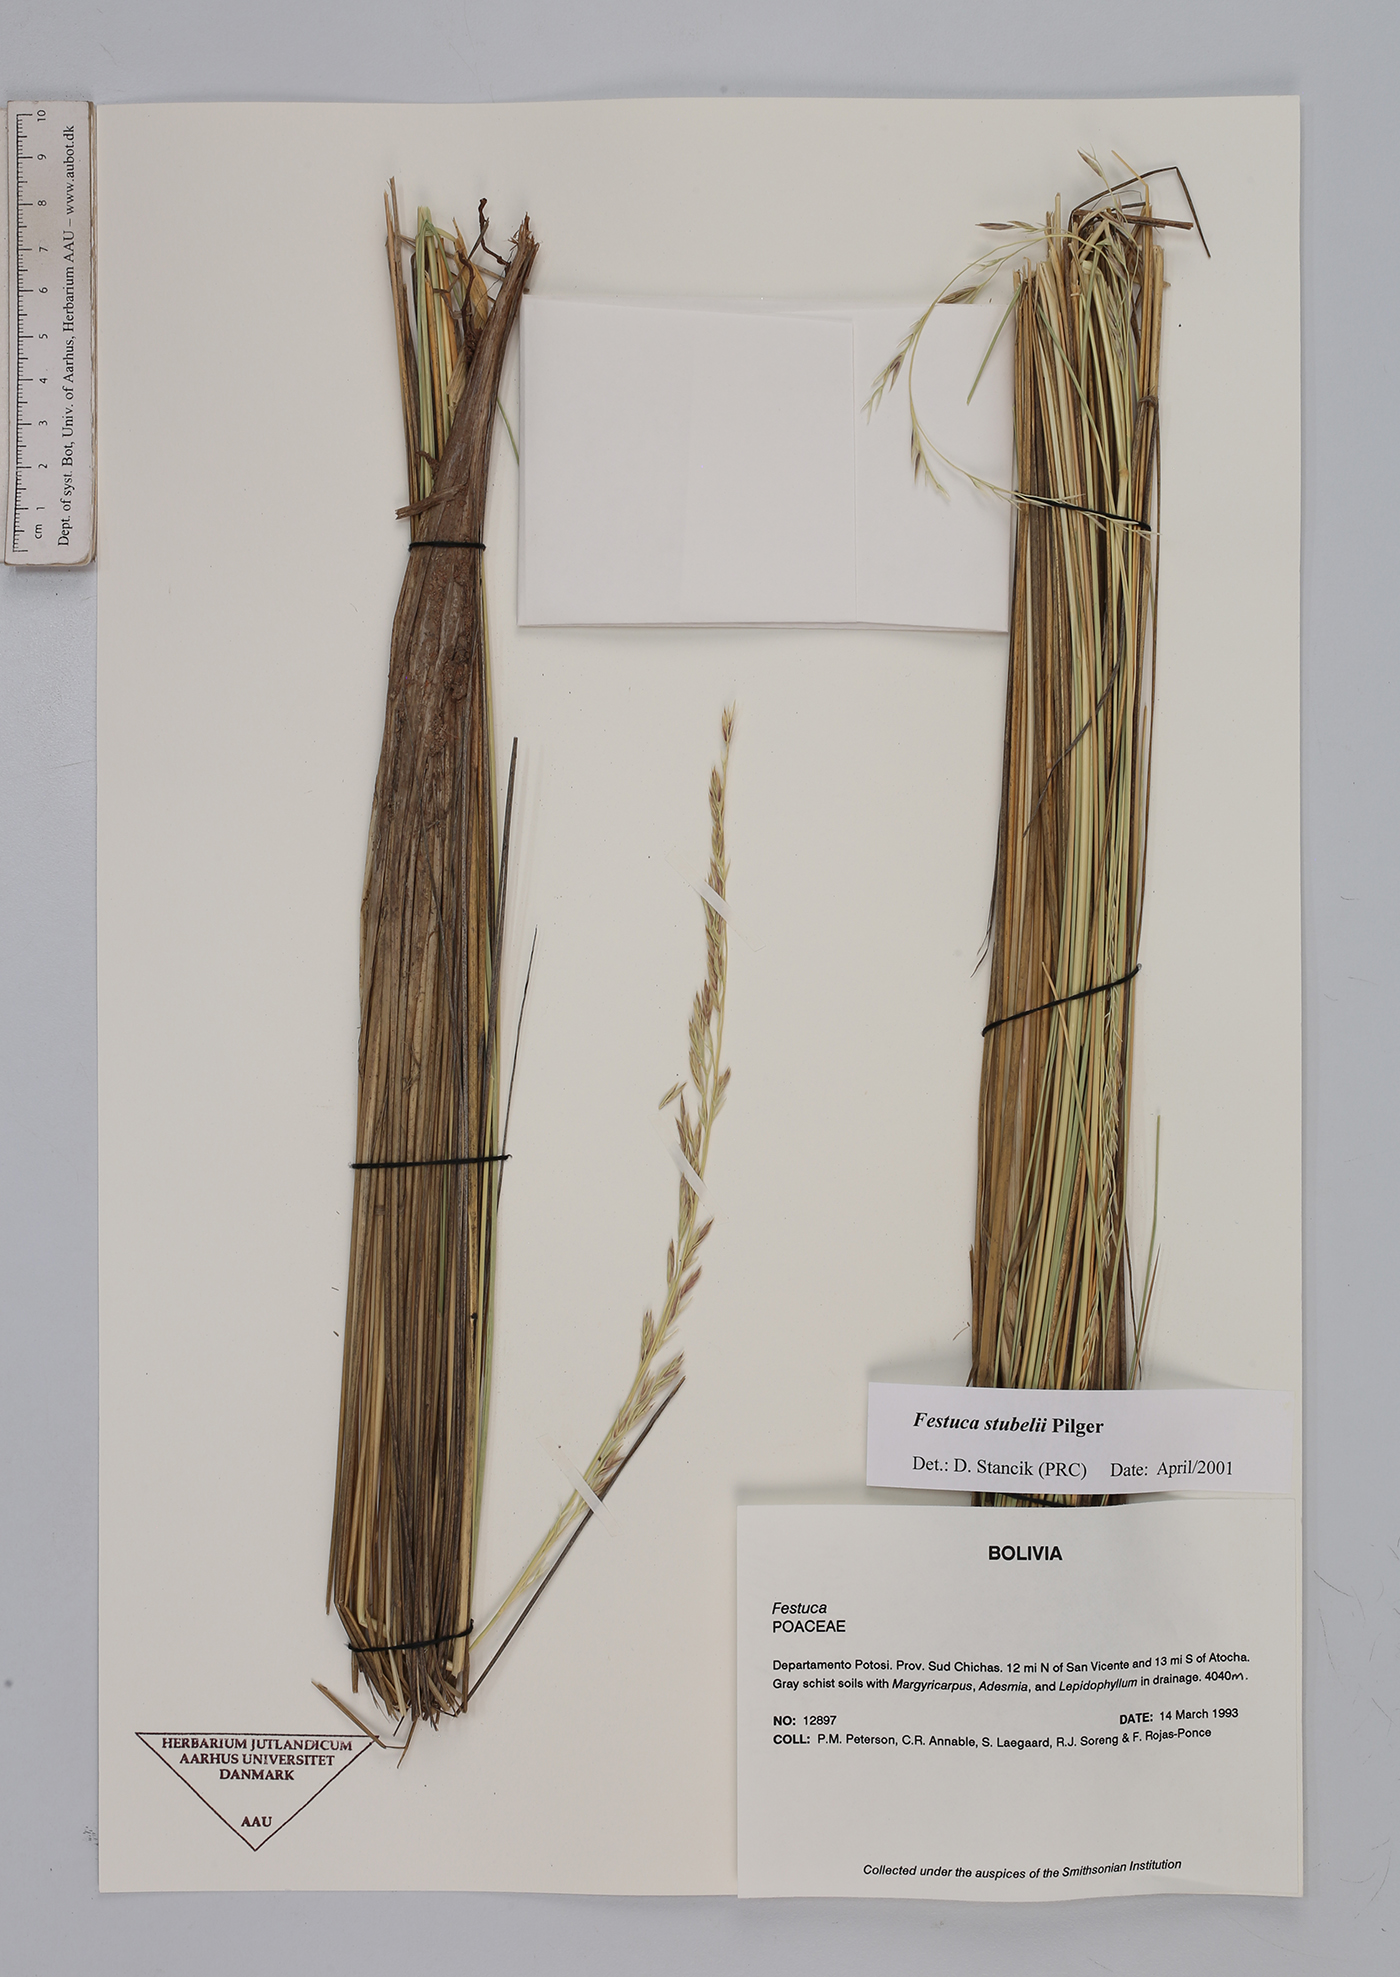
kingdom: Plantae
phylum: Tracheophyta
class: Liliopsida
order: Poales
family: Poaceae
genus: Festuca
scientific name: Festuca rigescens
